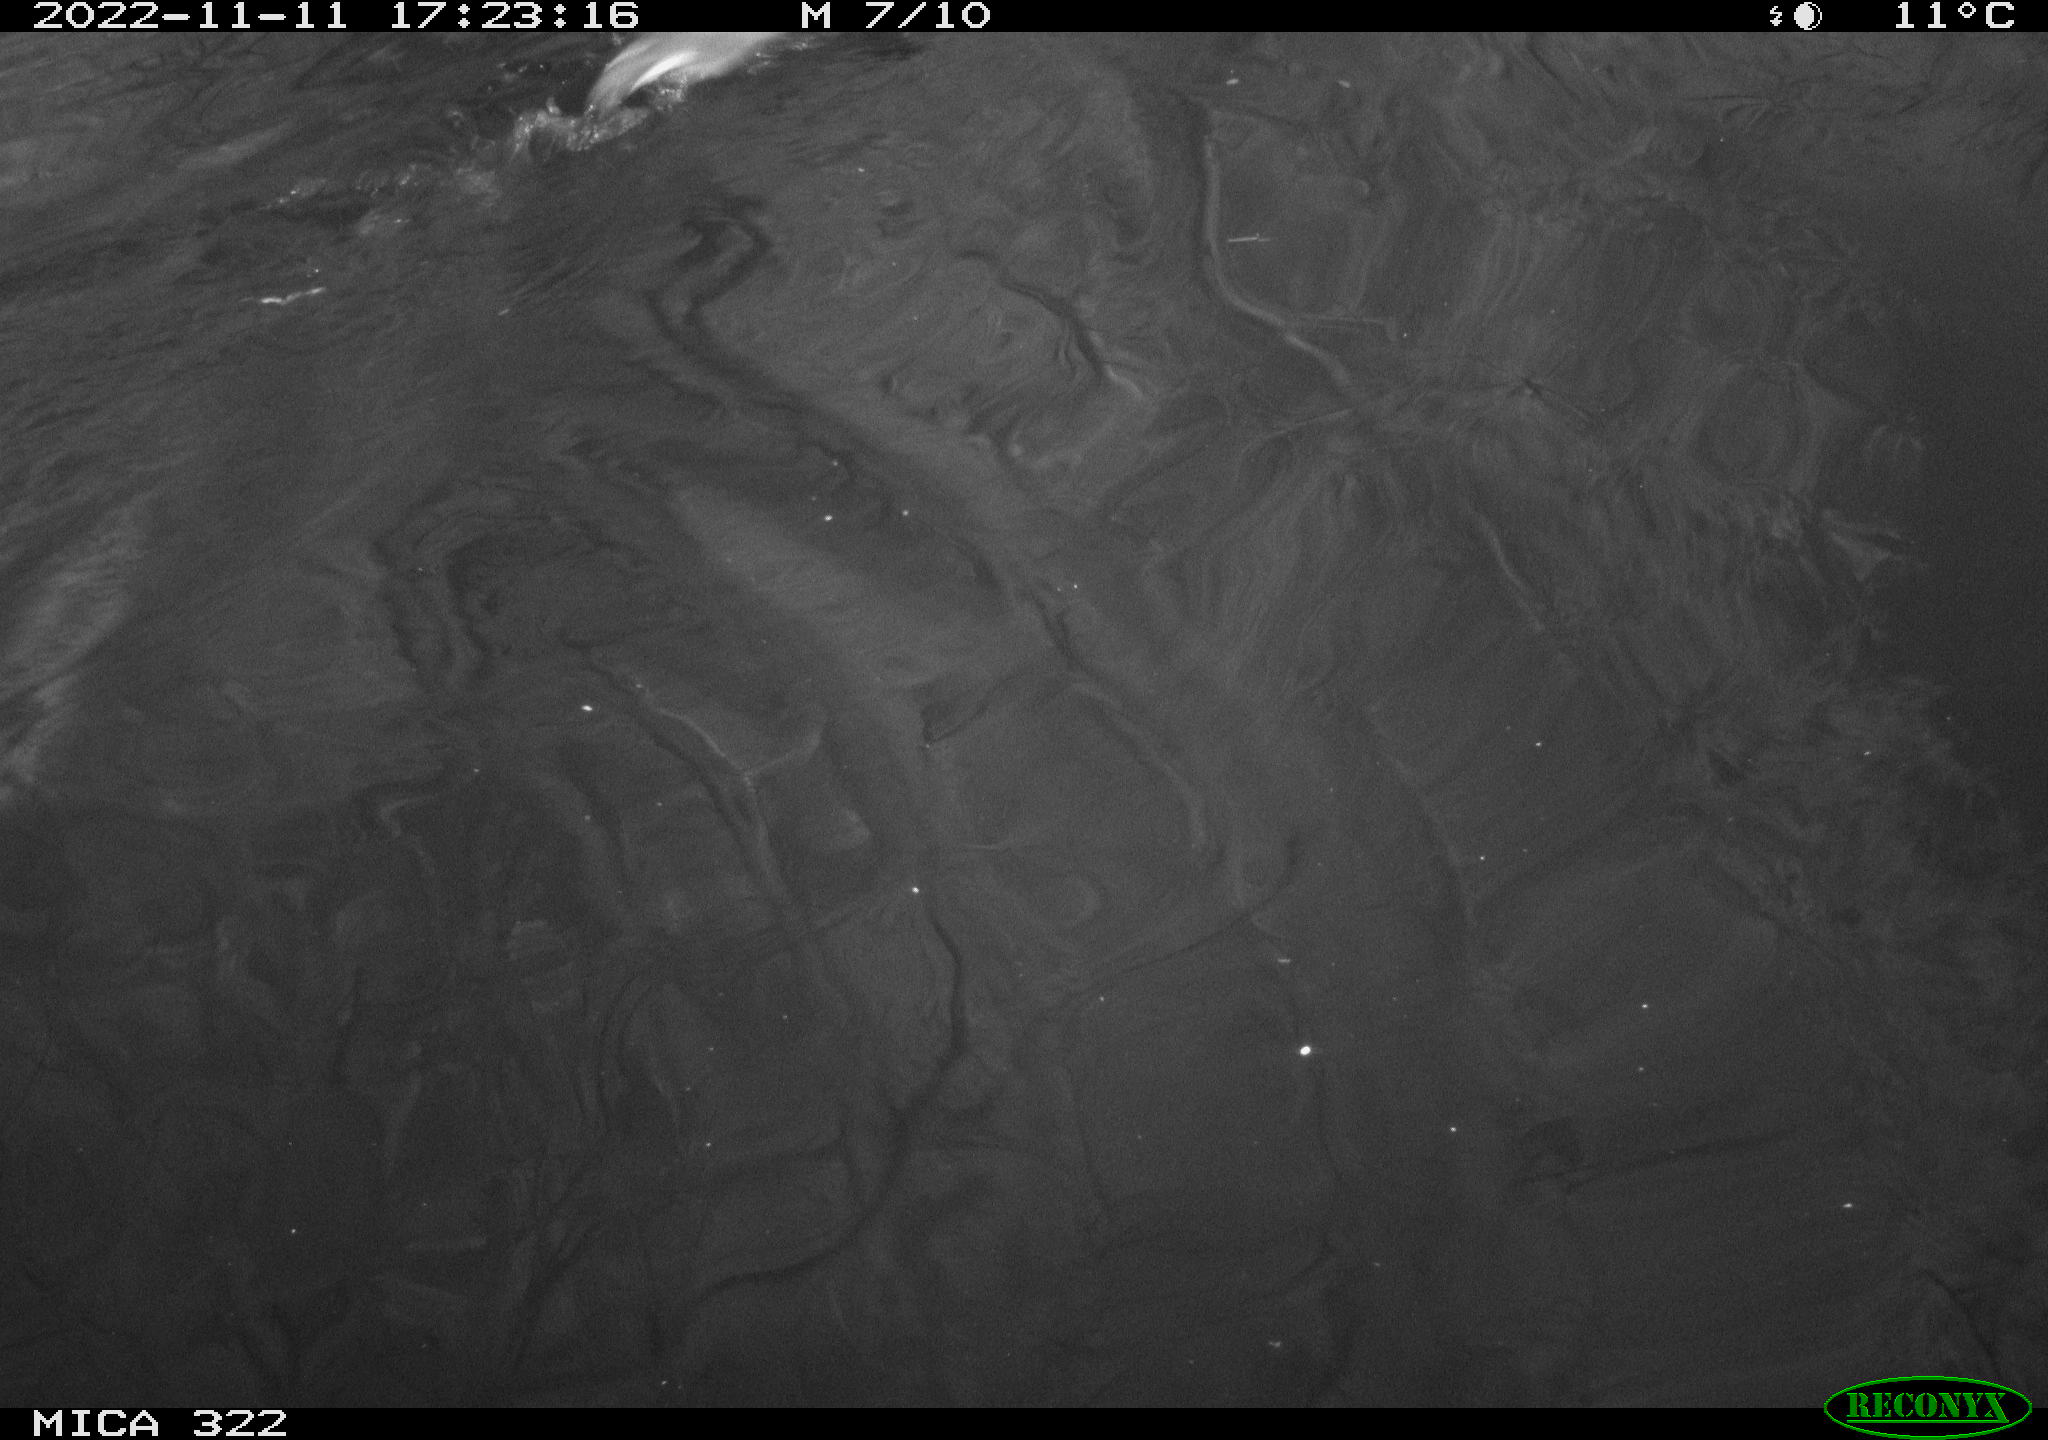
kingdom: Animalia
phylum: Chordata
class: Aves
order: Gruiformes
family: Rallidae
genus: Gallinula
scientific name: Gallinula chloropus
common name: Common moorhen
